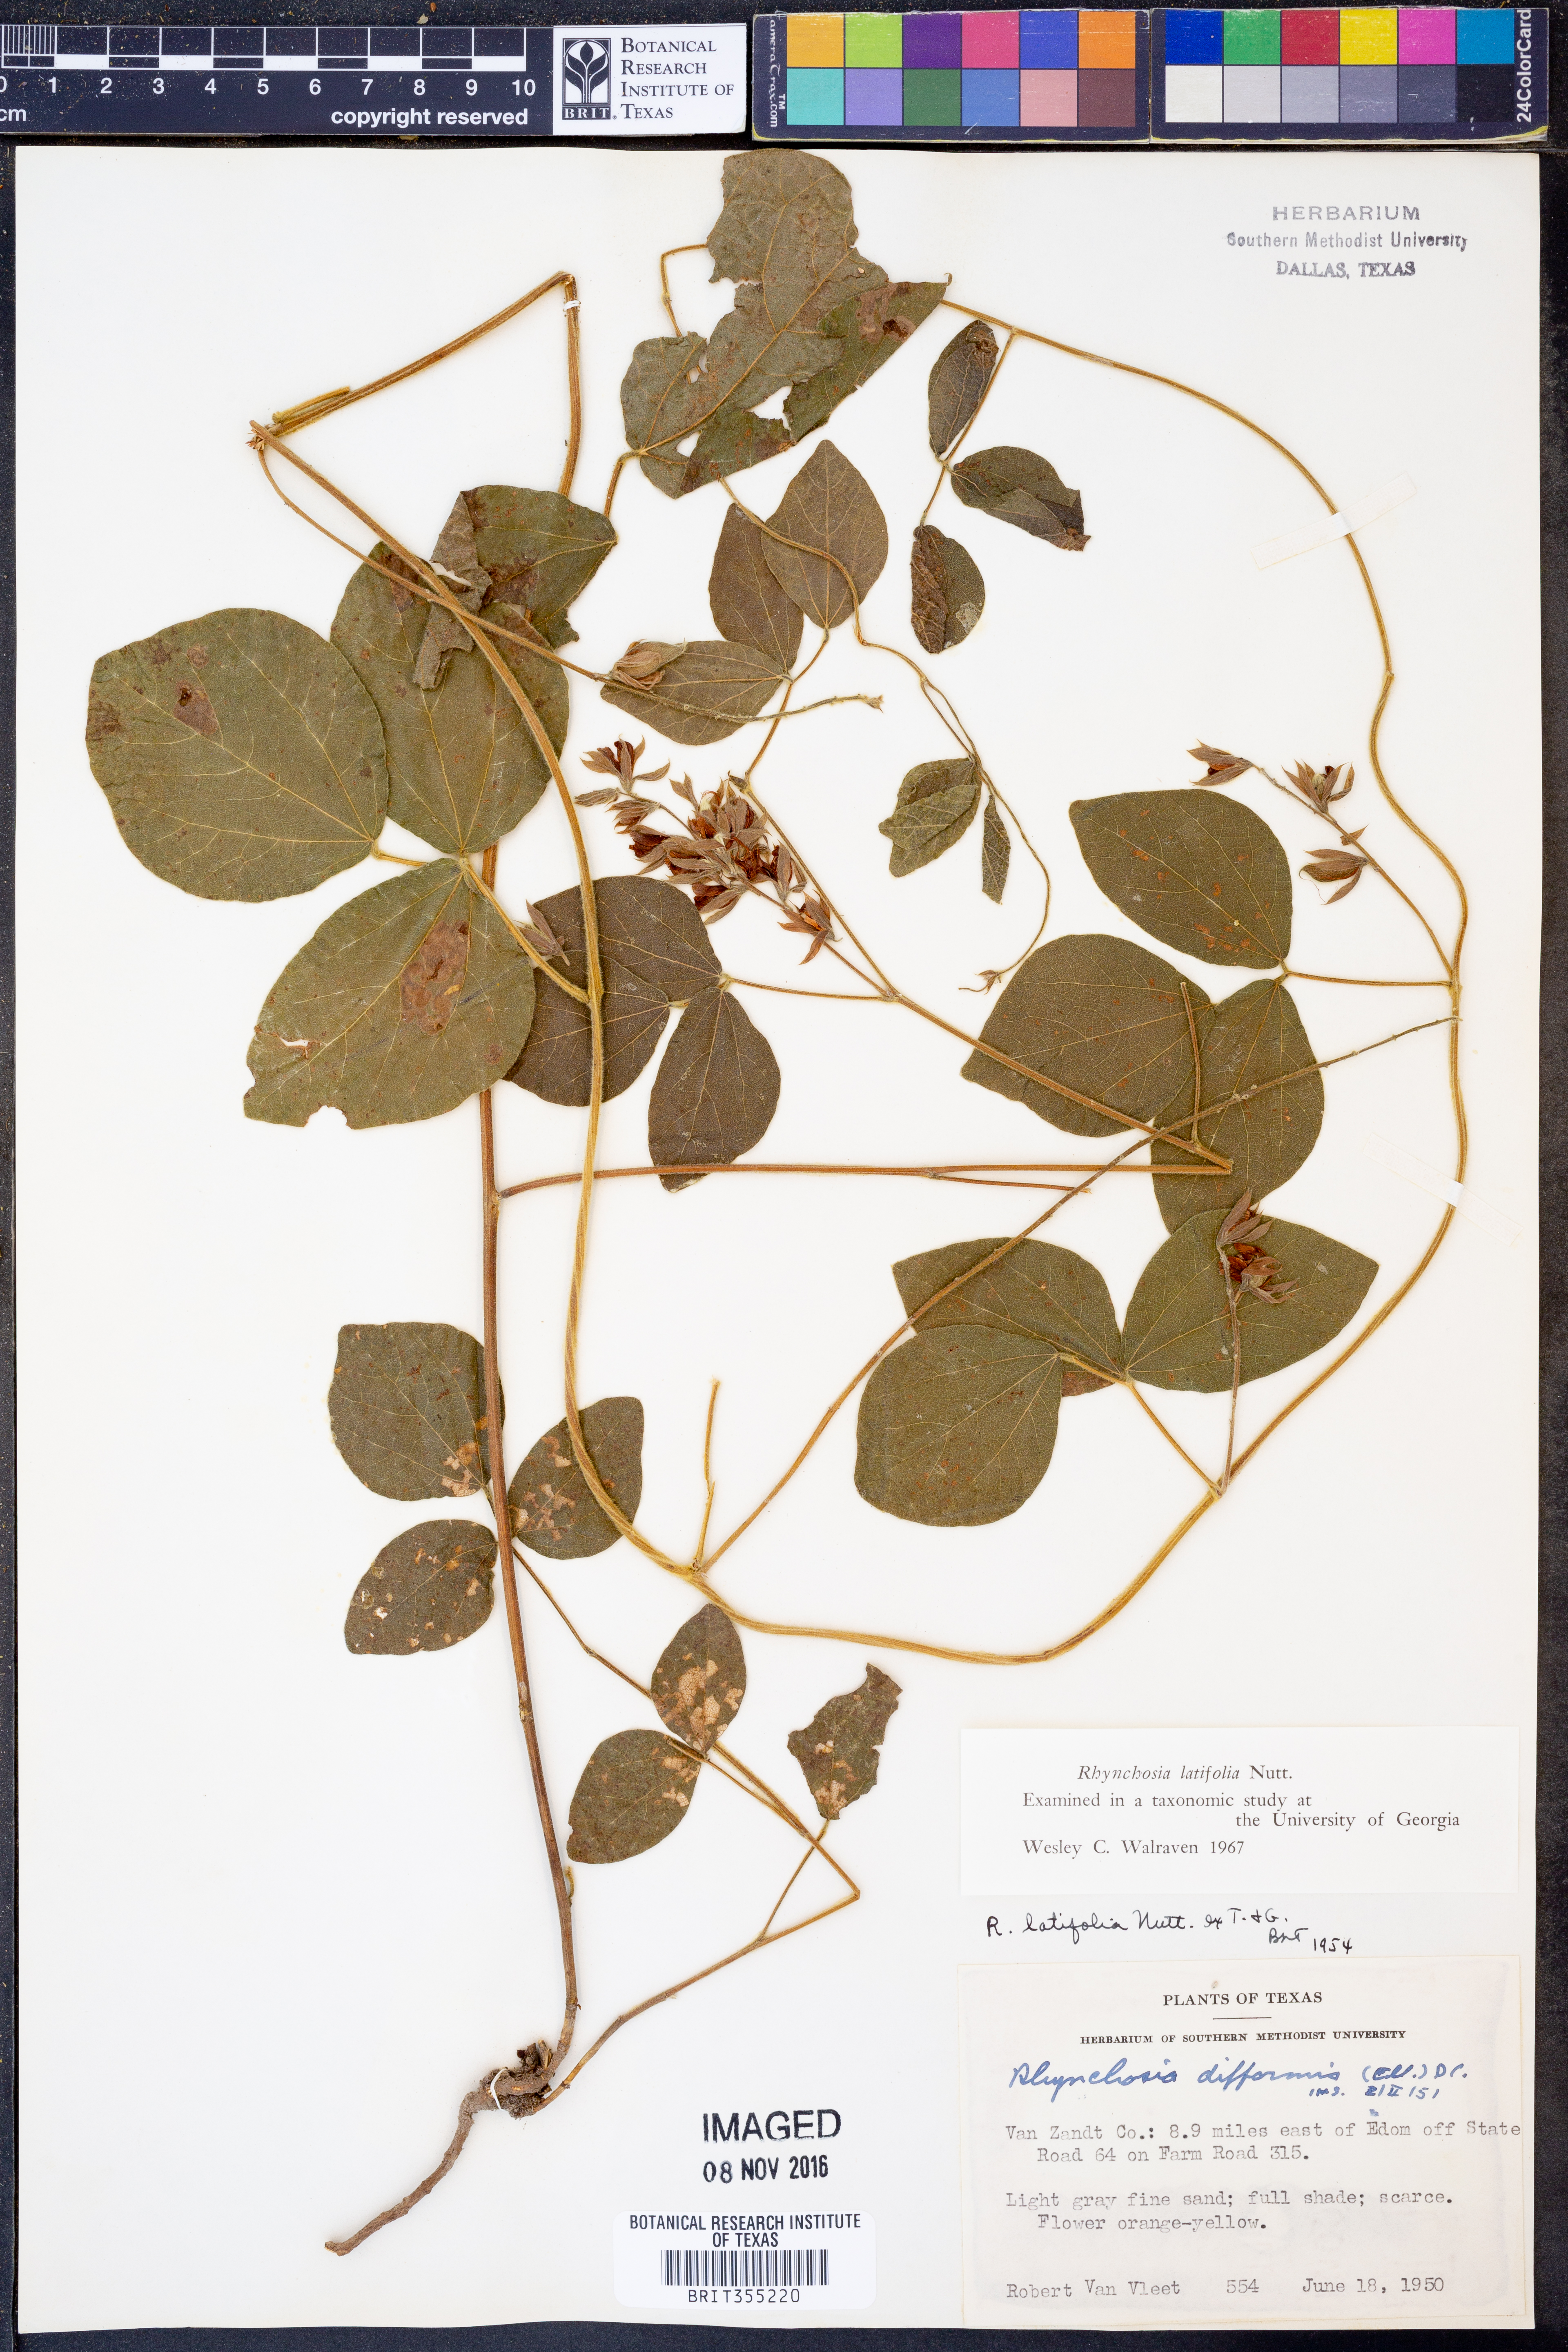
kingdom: Plantae
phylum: Tracheophyta
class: Magnoliopsida
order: Fabales
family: Fabaceae
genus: Rhynchosia
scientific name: Rhynchosia latifolia
